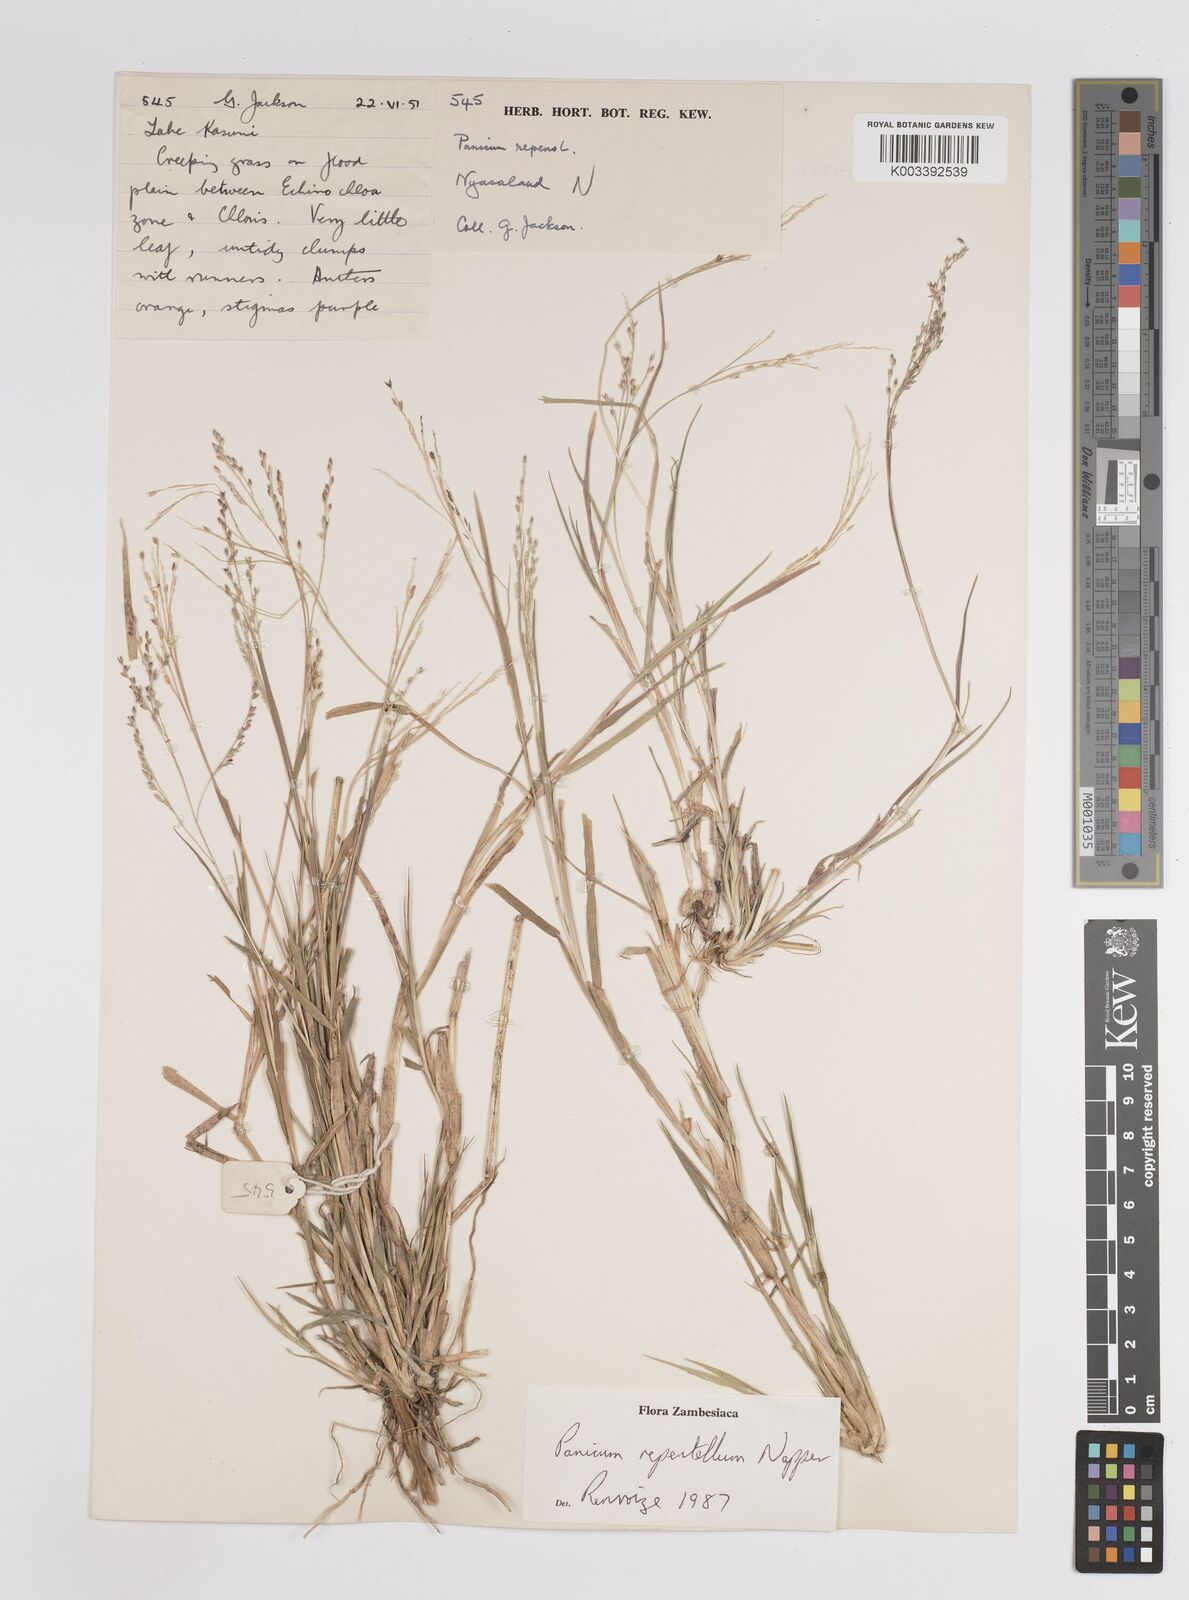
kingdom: Plantae
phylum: Tracheophyta
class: Liliopsida
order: Poales
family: Poaceae
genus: Panicum
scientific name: Panicum hygrocharis
